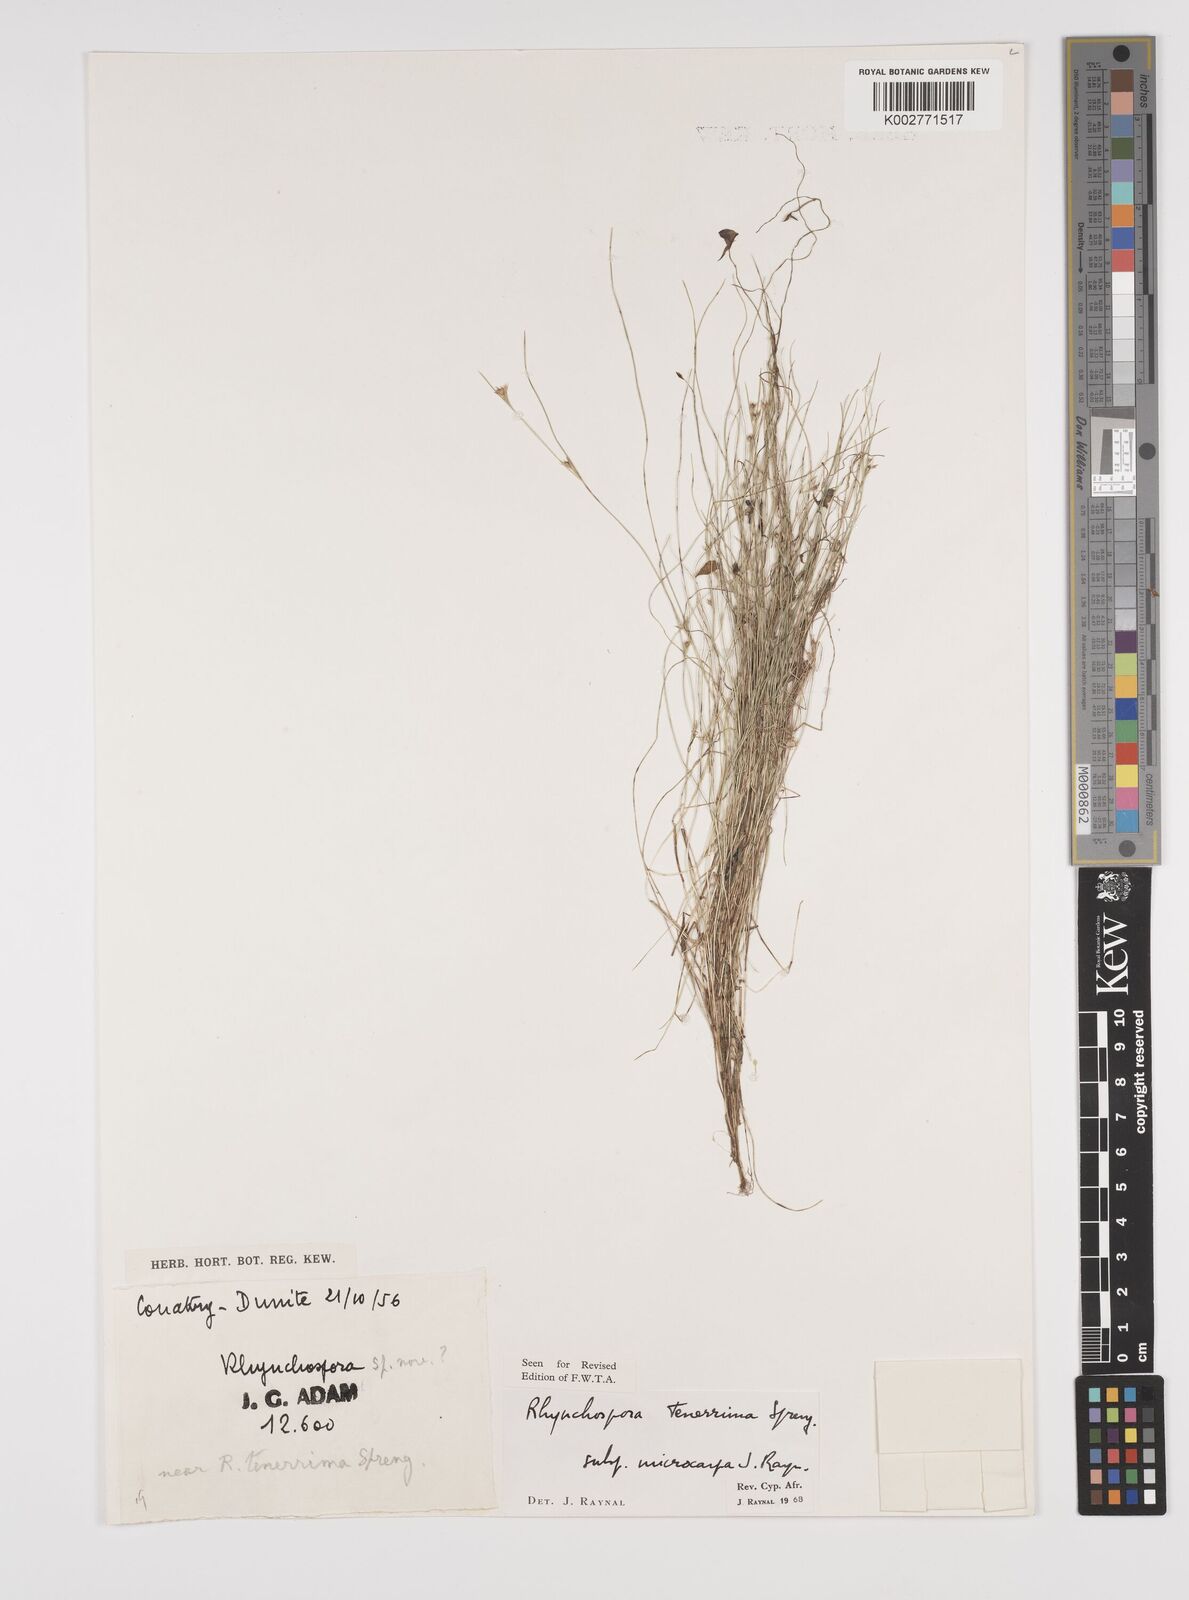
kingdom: Plantae
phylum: Tracheophyta
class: Liliopsida
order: Poales
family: Cyperaceae
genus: Rhynchospora
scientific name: Rhynchospora tenerrima
